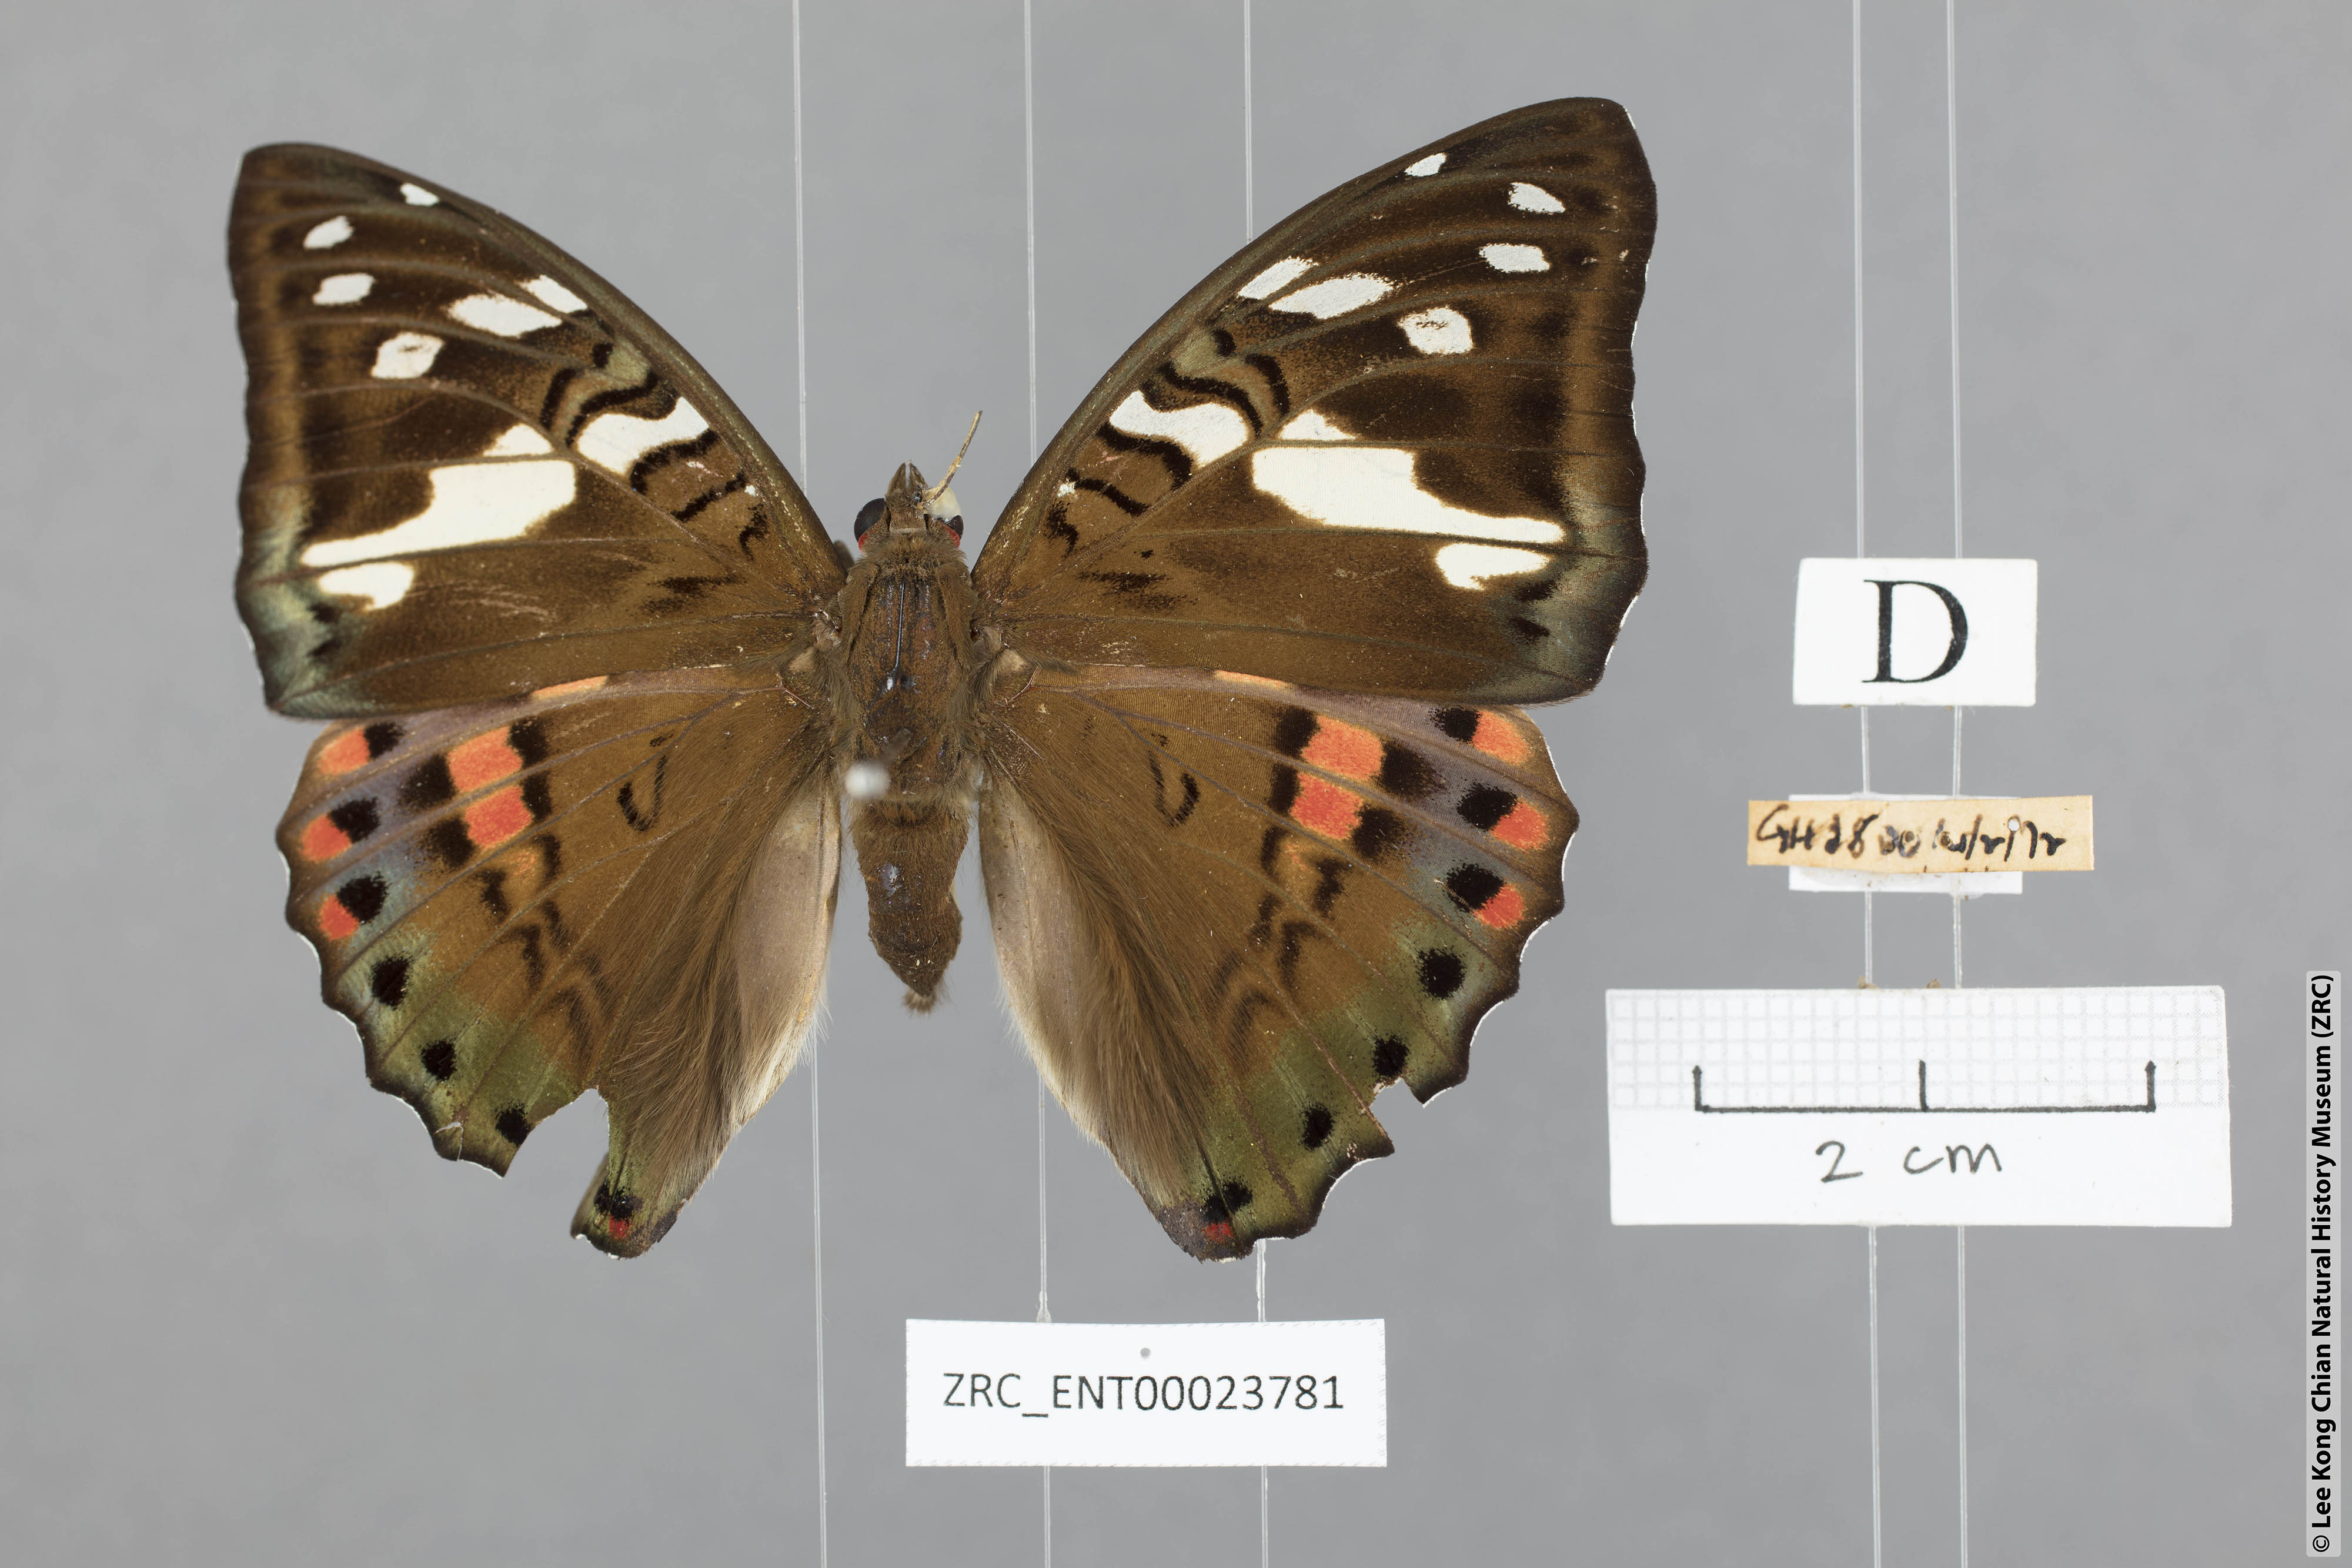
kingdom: Animalia
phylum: Arthropoda
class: Insecta
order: Lepidoptera
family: Nymphalidae
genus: Euthalia
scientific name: Euthalia whiteheadi
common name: Tri-coloured baron
